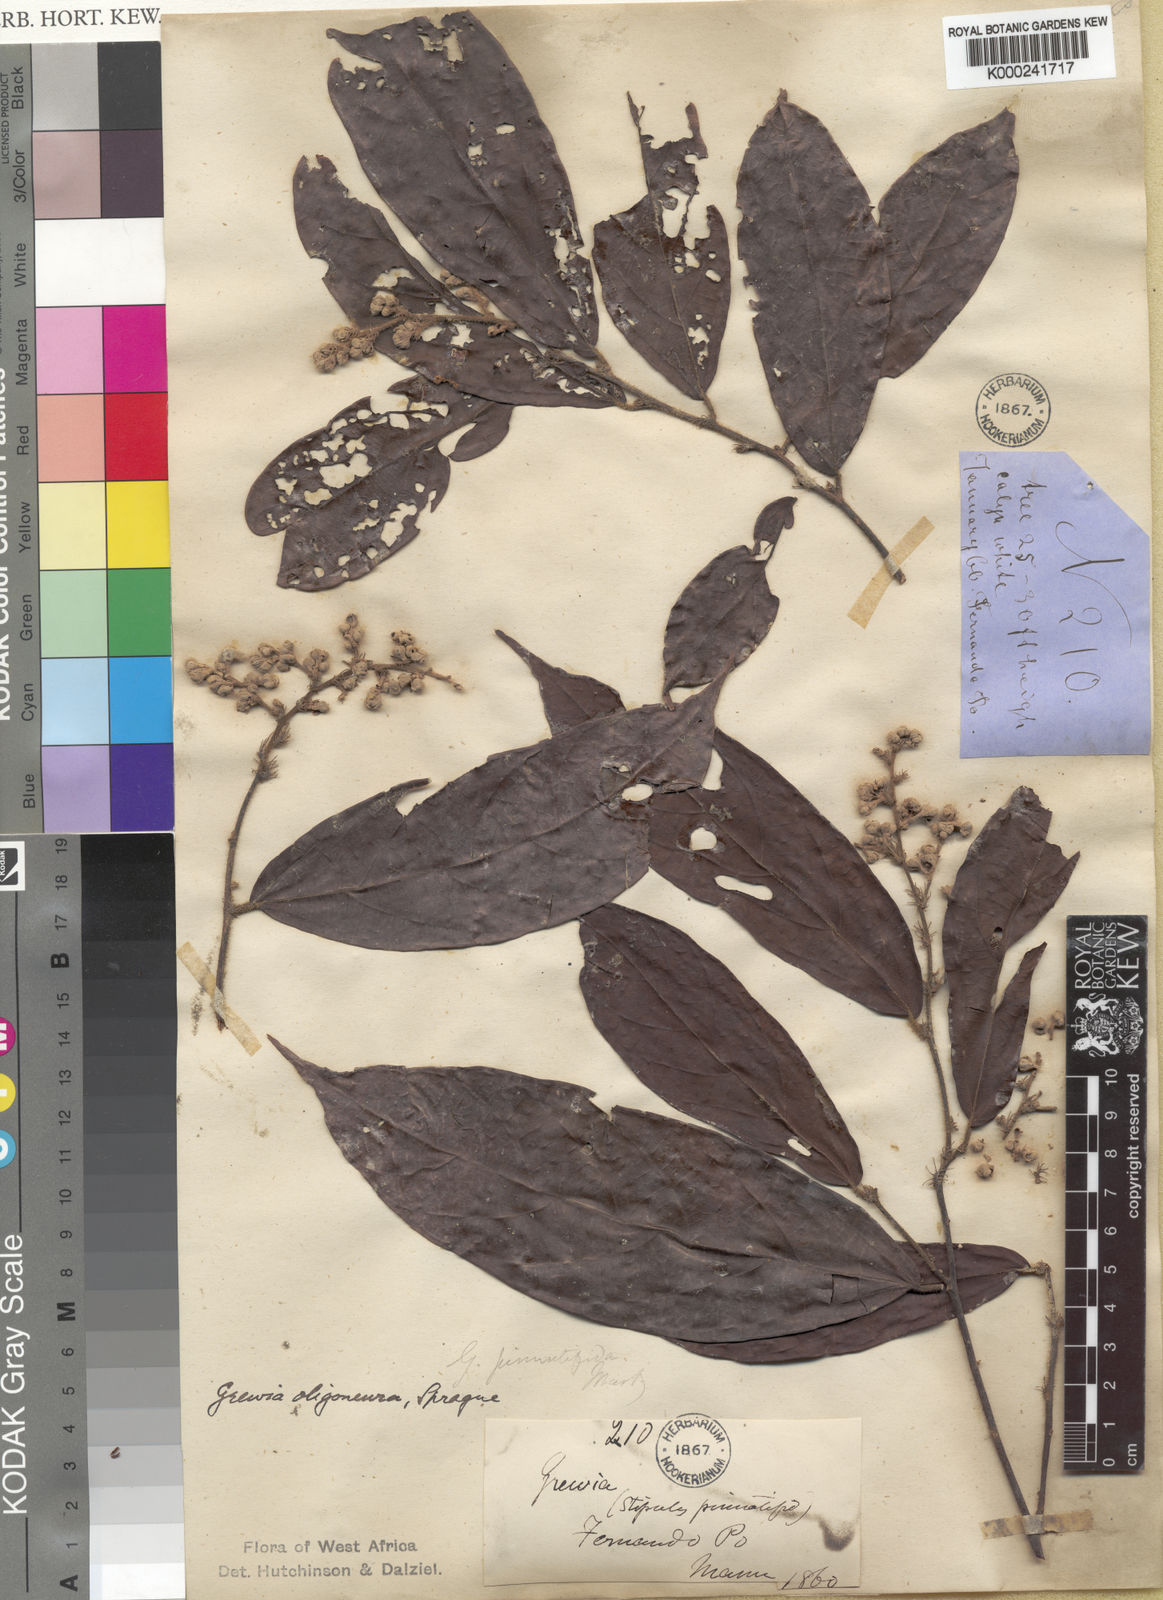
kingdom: Plantae
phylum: Tracheophyta
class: Magnoliopsida
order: Malvales
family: Malvaceae
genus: Microcos
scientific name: Microcos oligoneura
